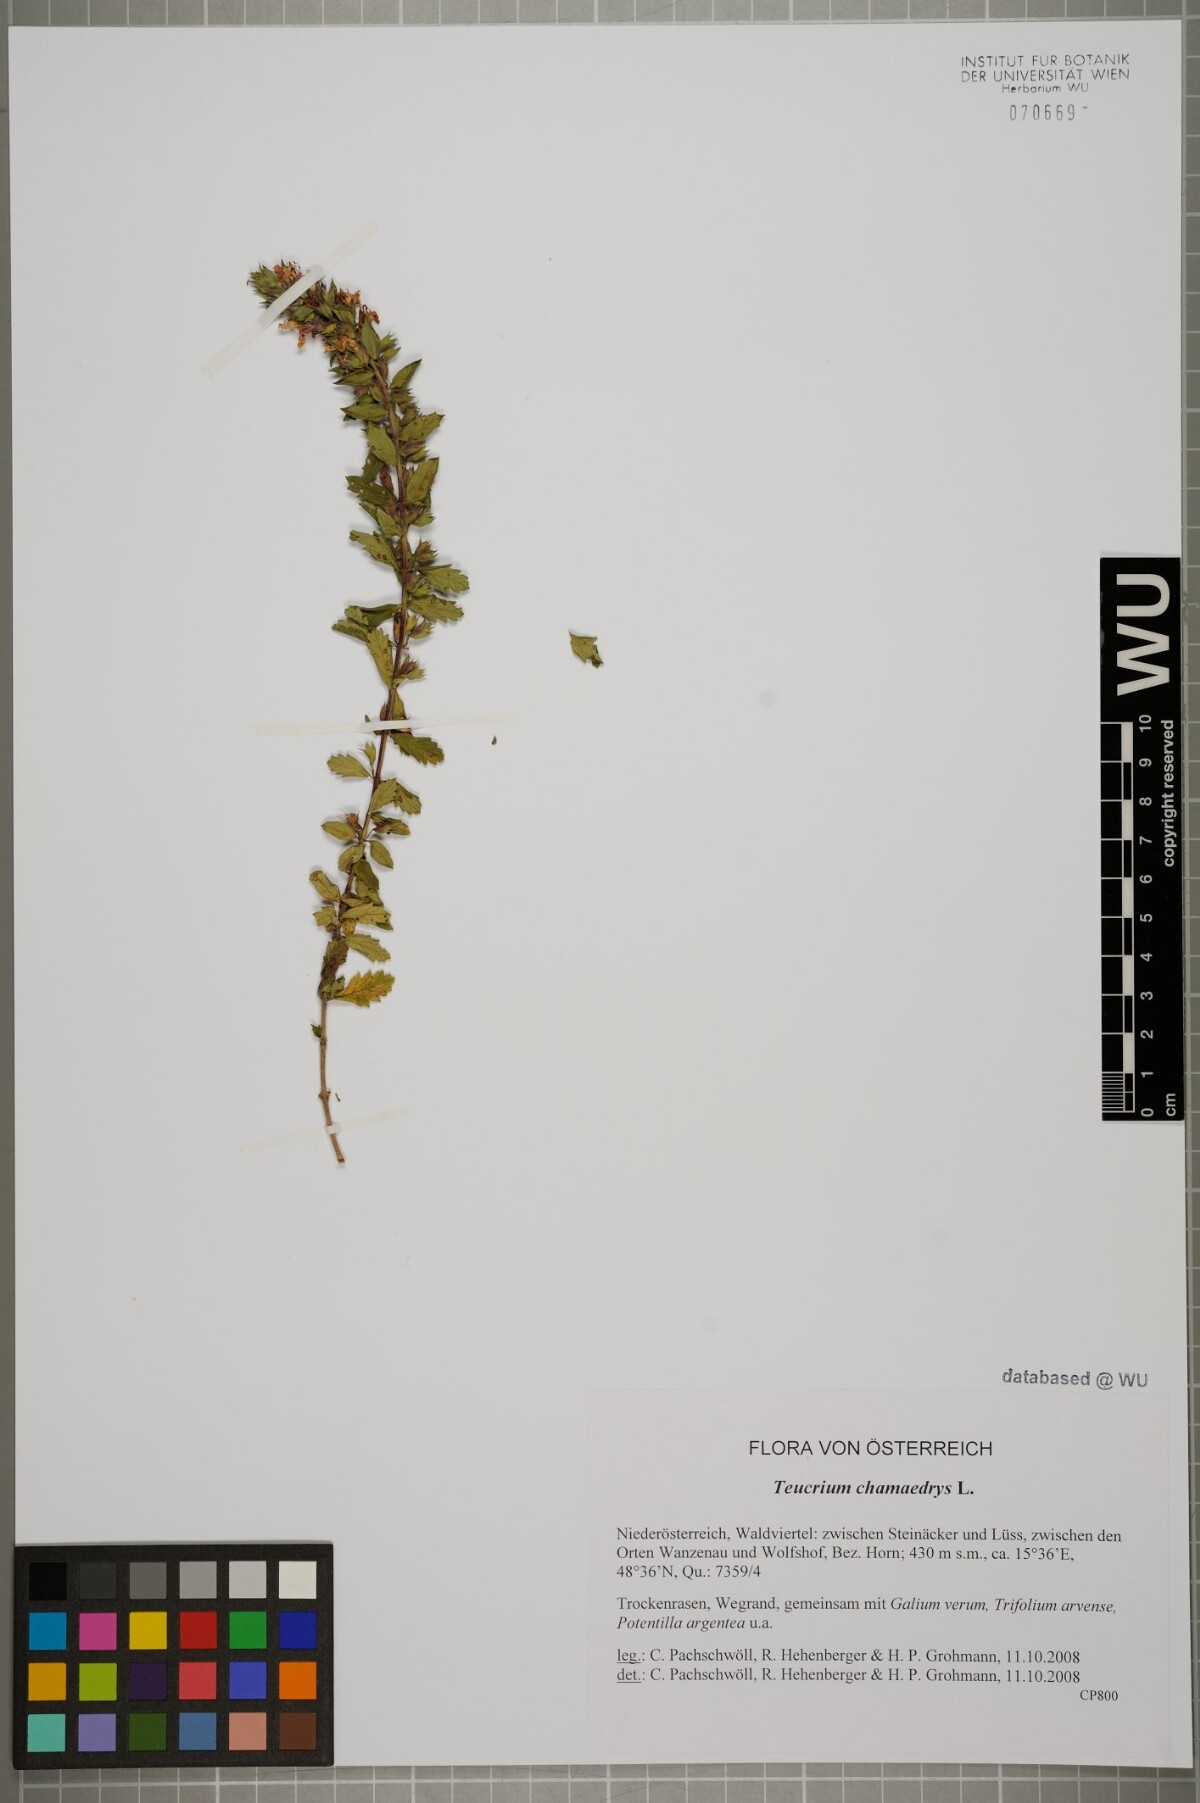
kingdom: Plantae
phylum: Tracheophyta
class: Magnoliopsida
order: Lamiales
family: Lamiaceae
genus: Teucrium
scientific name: Teucrium chamaedrys
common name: Wall germander
